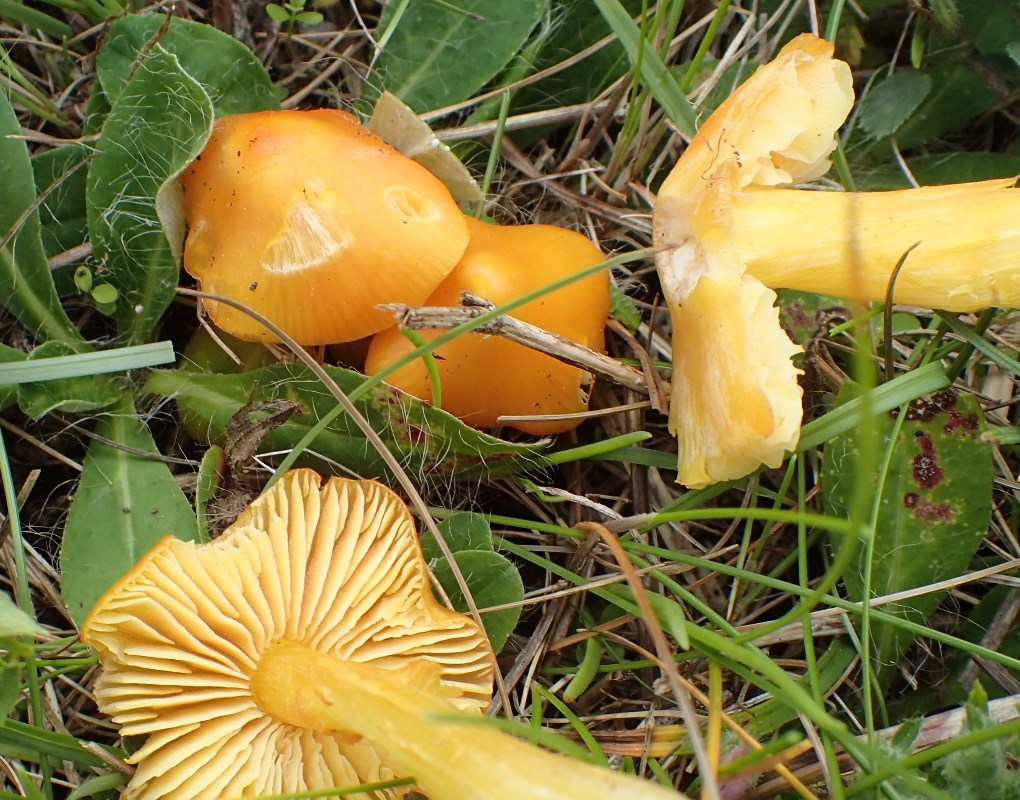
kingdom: Fungi
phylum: Basidiomycota
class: Agaricomycetes
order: Agaricales
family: Hygrophoraceae
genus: Hygrocybe
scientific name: Hygrocybe acutoconica
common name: spidspuklet vokshat
